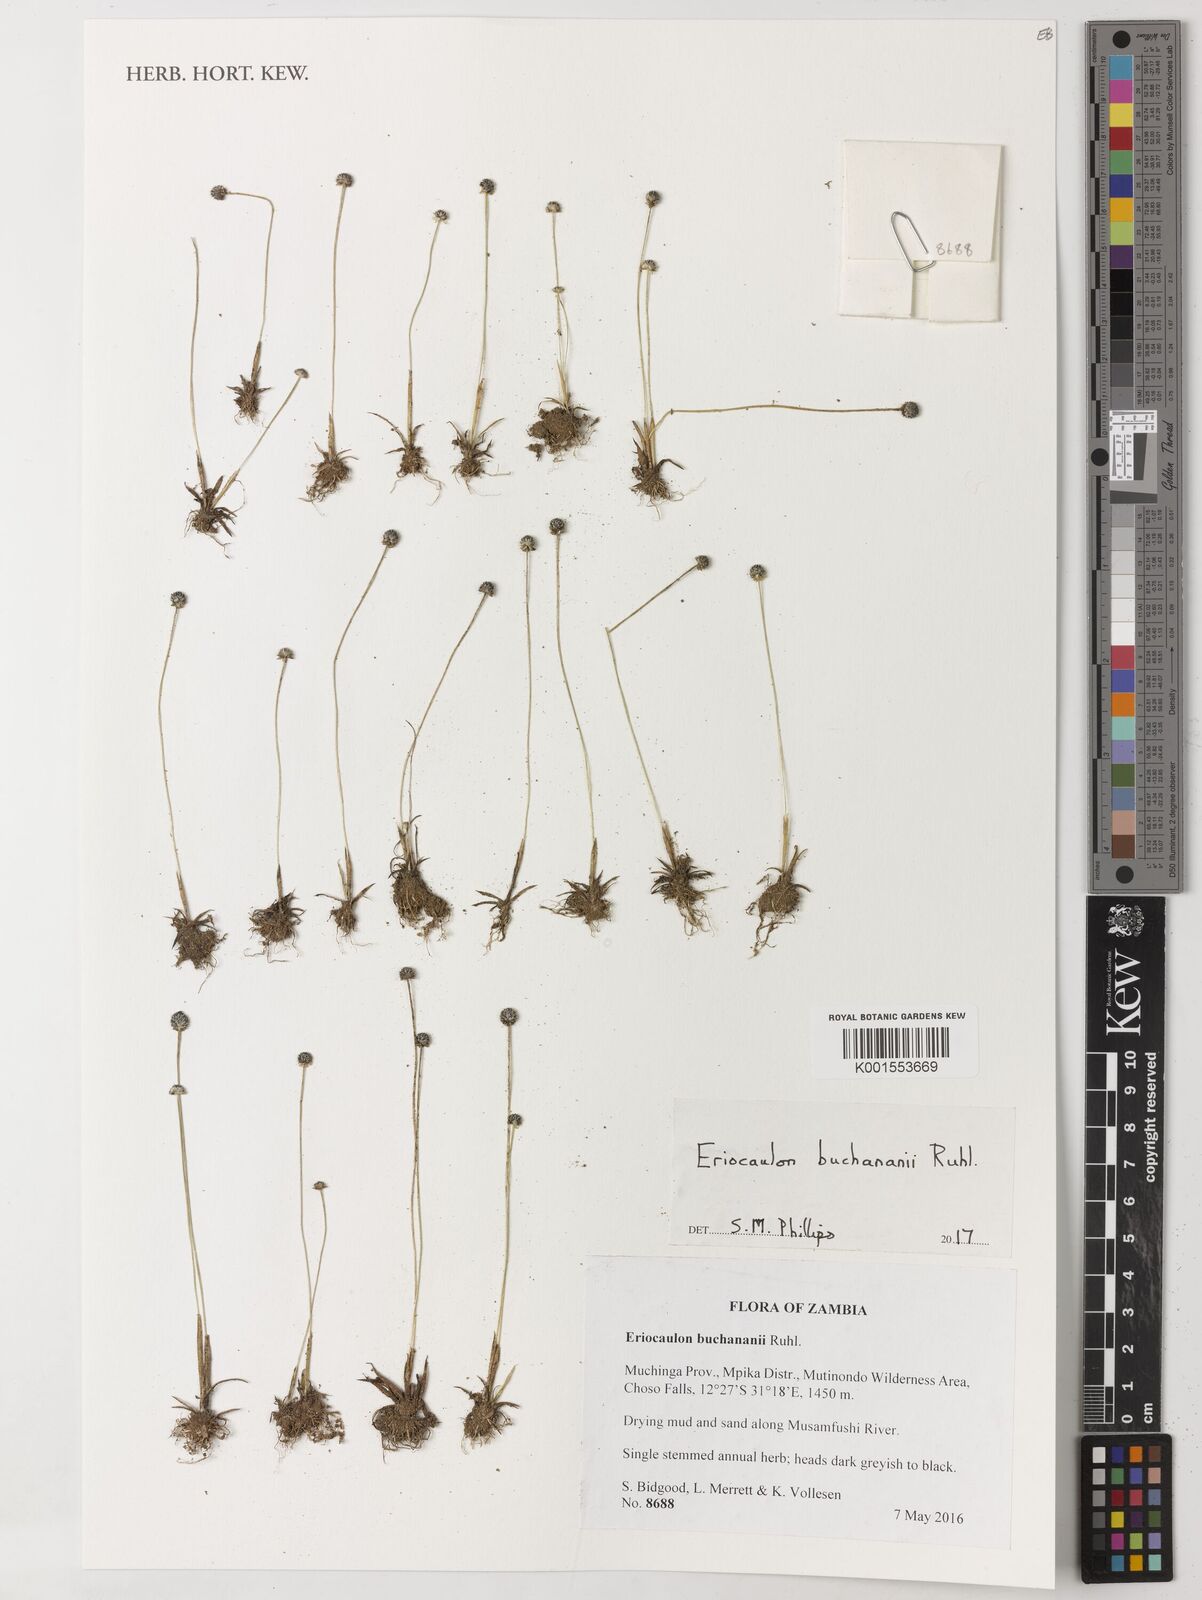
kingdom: Plantae
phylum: Tracheophyta
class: Liliopsida
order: Poales
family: Eriocaulaceae
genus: Eriocaulon
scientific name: Eriocaulon buchananii
